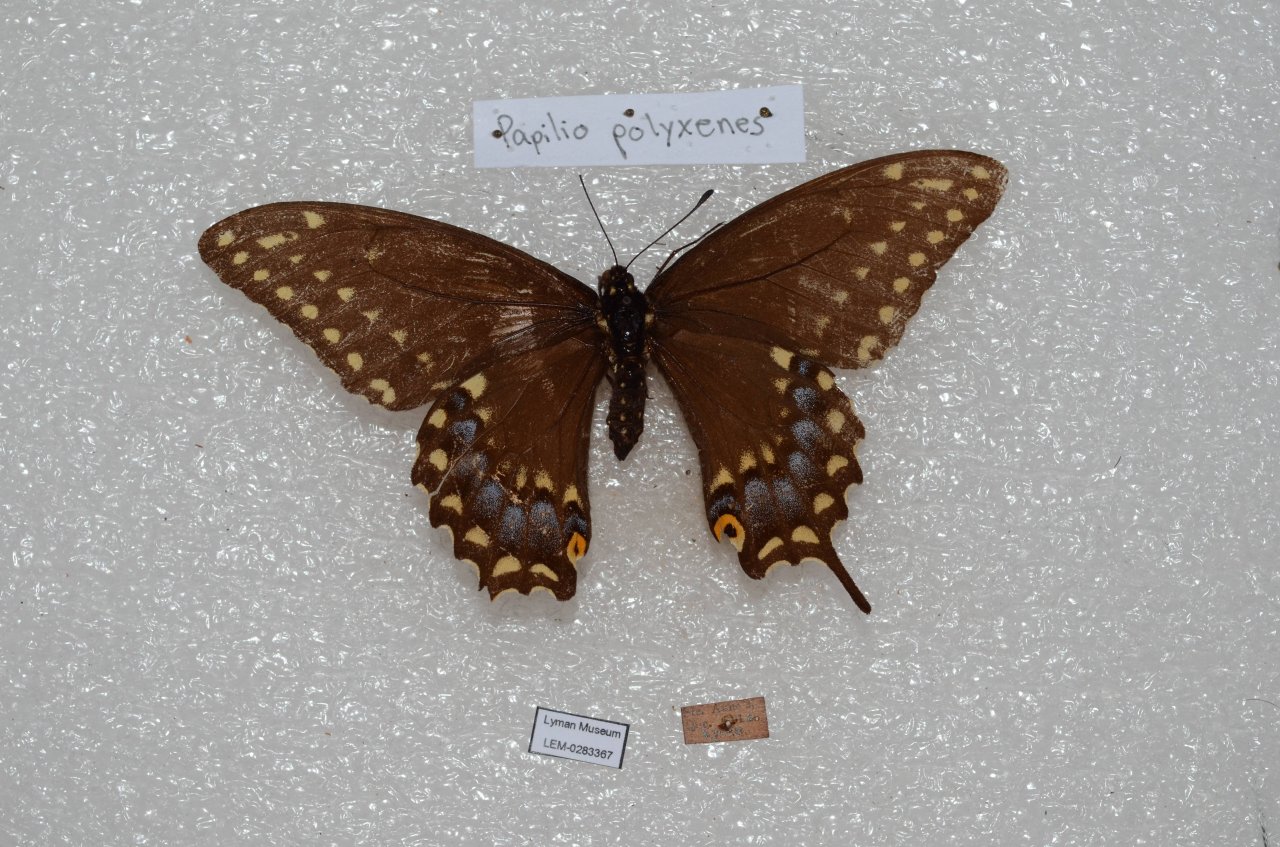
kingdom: Animalia
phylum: Arthropoda
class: Insecta
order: Lepidoptera
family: Papilionidae
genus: Papilio
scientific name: Papilio polyxenes
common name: Black Swallowtail
